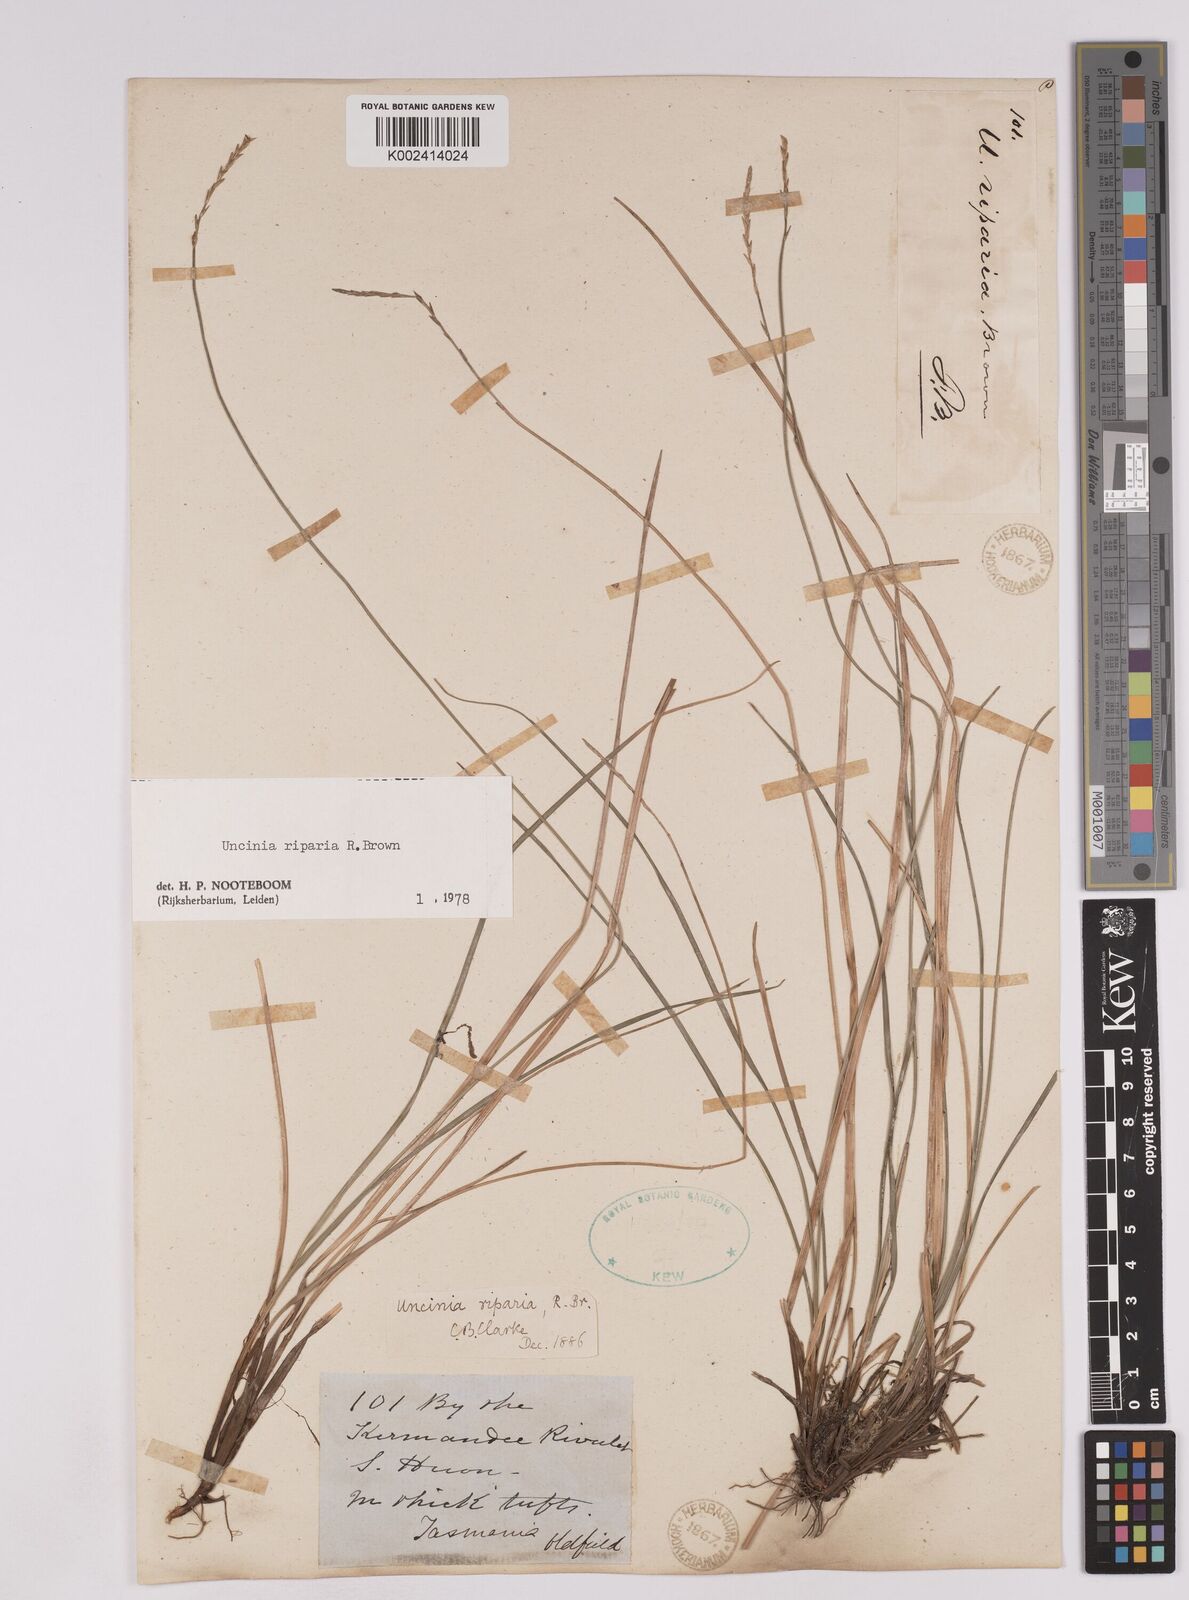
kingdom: Plantae
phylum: Tracheophyta
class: Liliopsida
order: Poales
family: Cyperaceae
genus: Carex
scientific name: Carex umbricola
